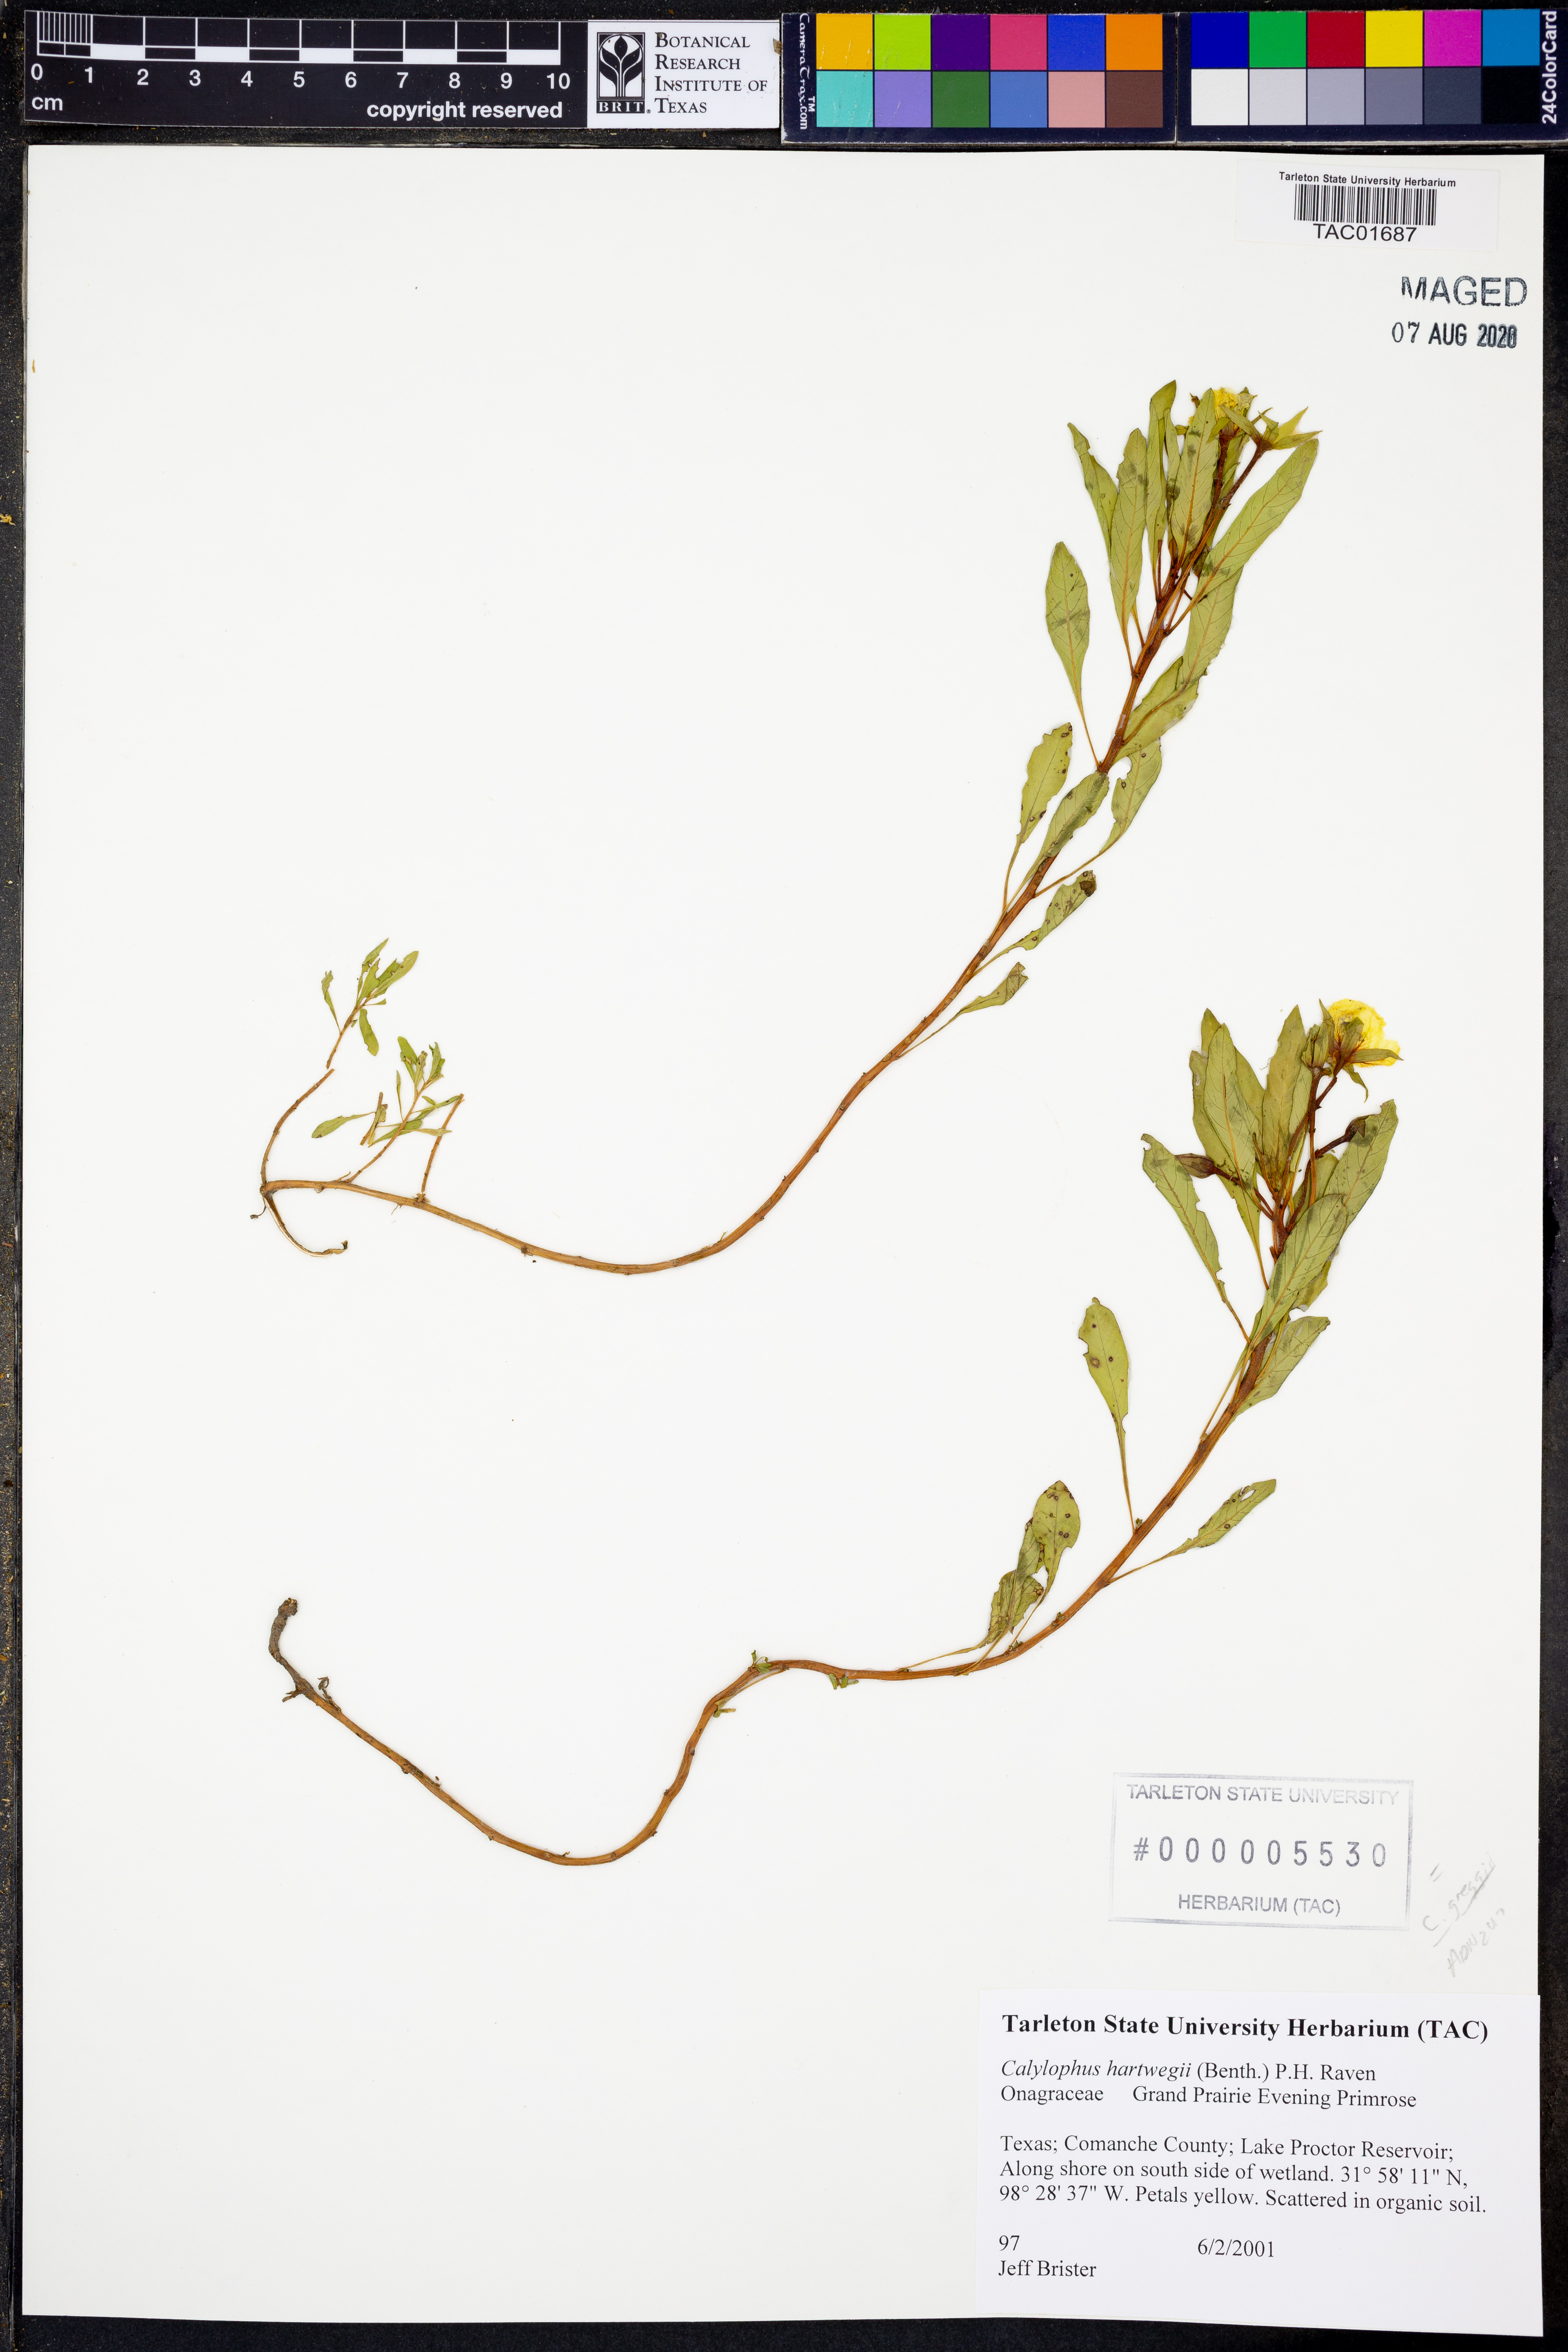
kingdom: Plantae
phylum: Tracheophyta
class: Magnoliopsida
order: Myrtales
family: Onagraceae
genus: Oenothera
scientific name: Oenothera hartwegii
